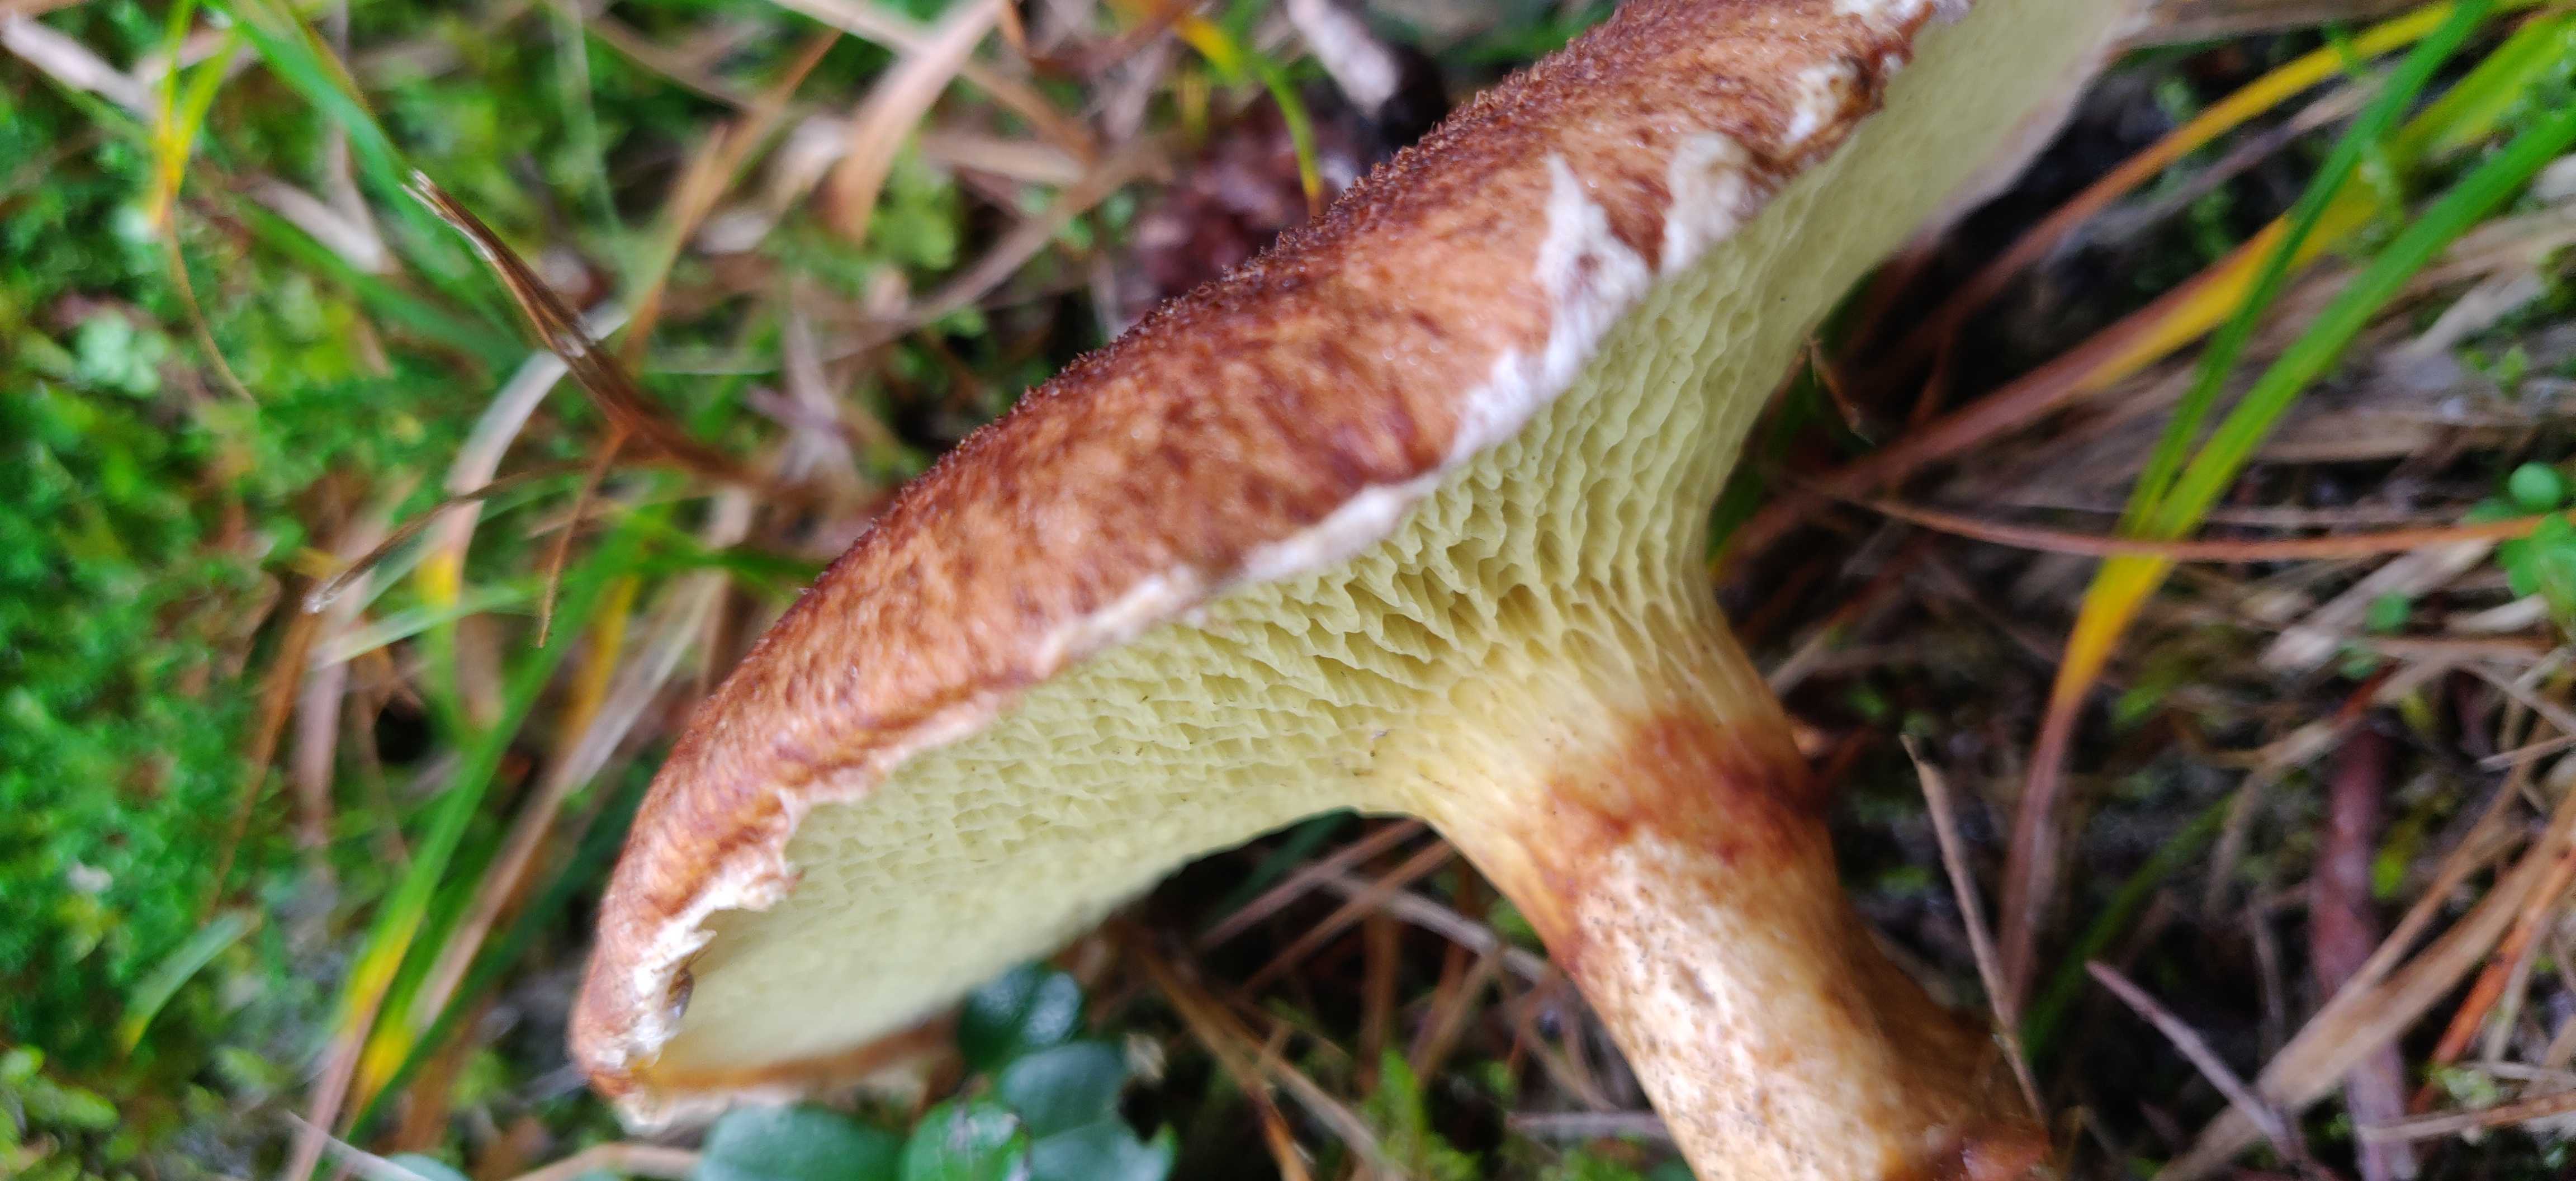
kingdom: Fungi
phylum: Basidiomycota
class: Agaricomycetes
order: Boletales
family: Suillaceae
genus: Suillus
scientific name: Suillus cavipes
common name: hulstokket slimrørhat
